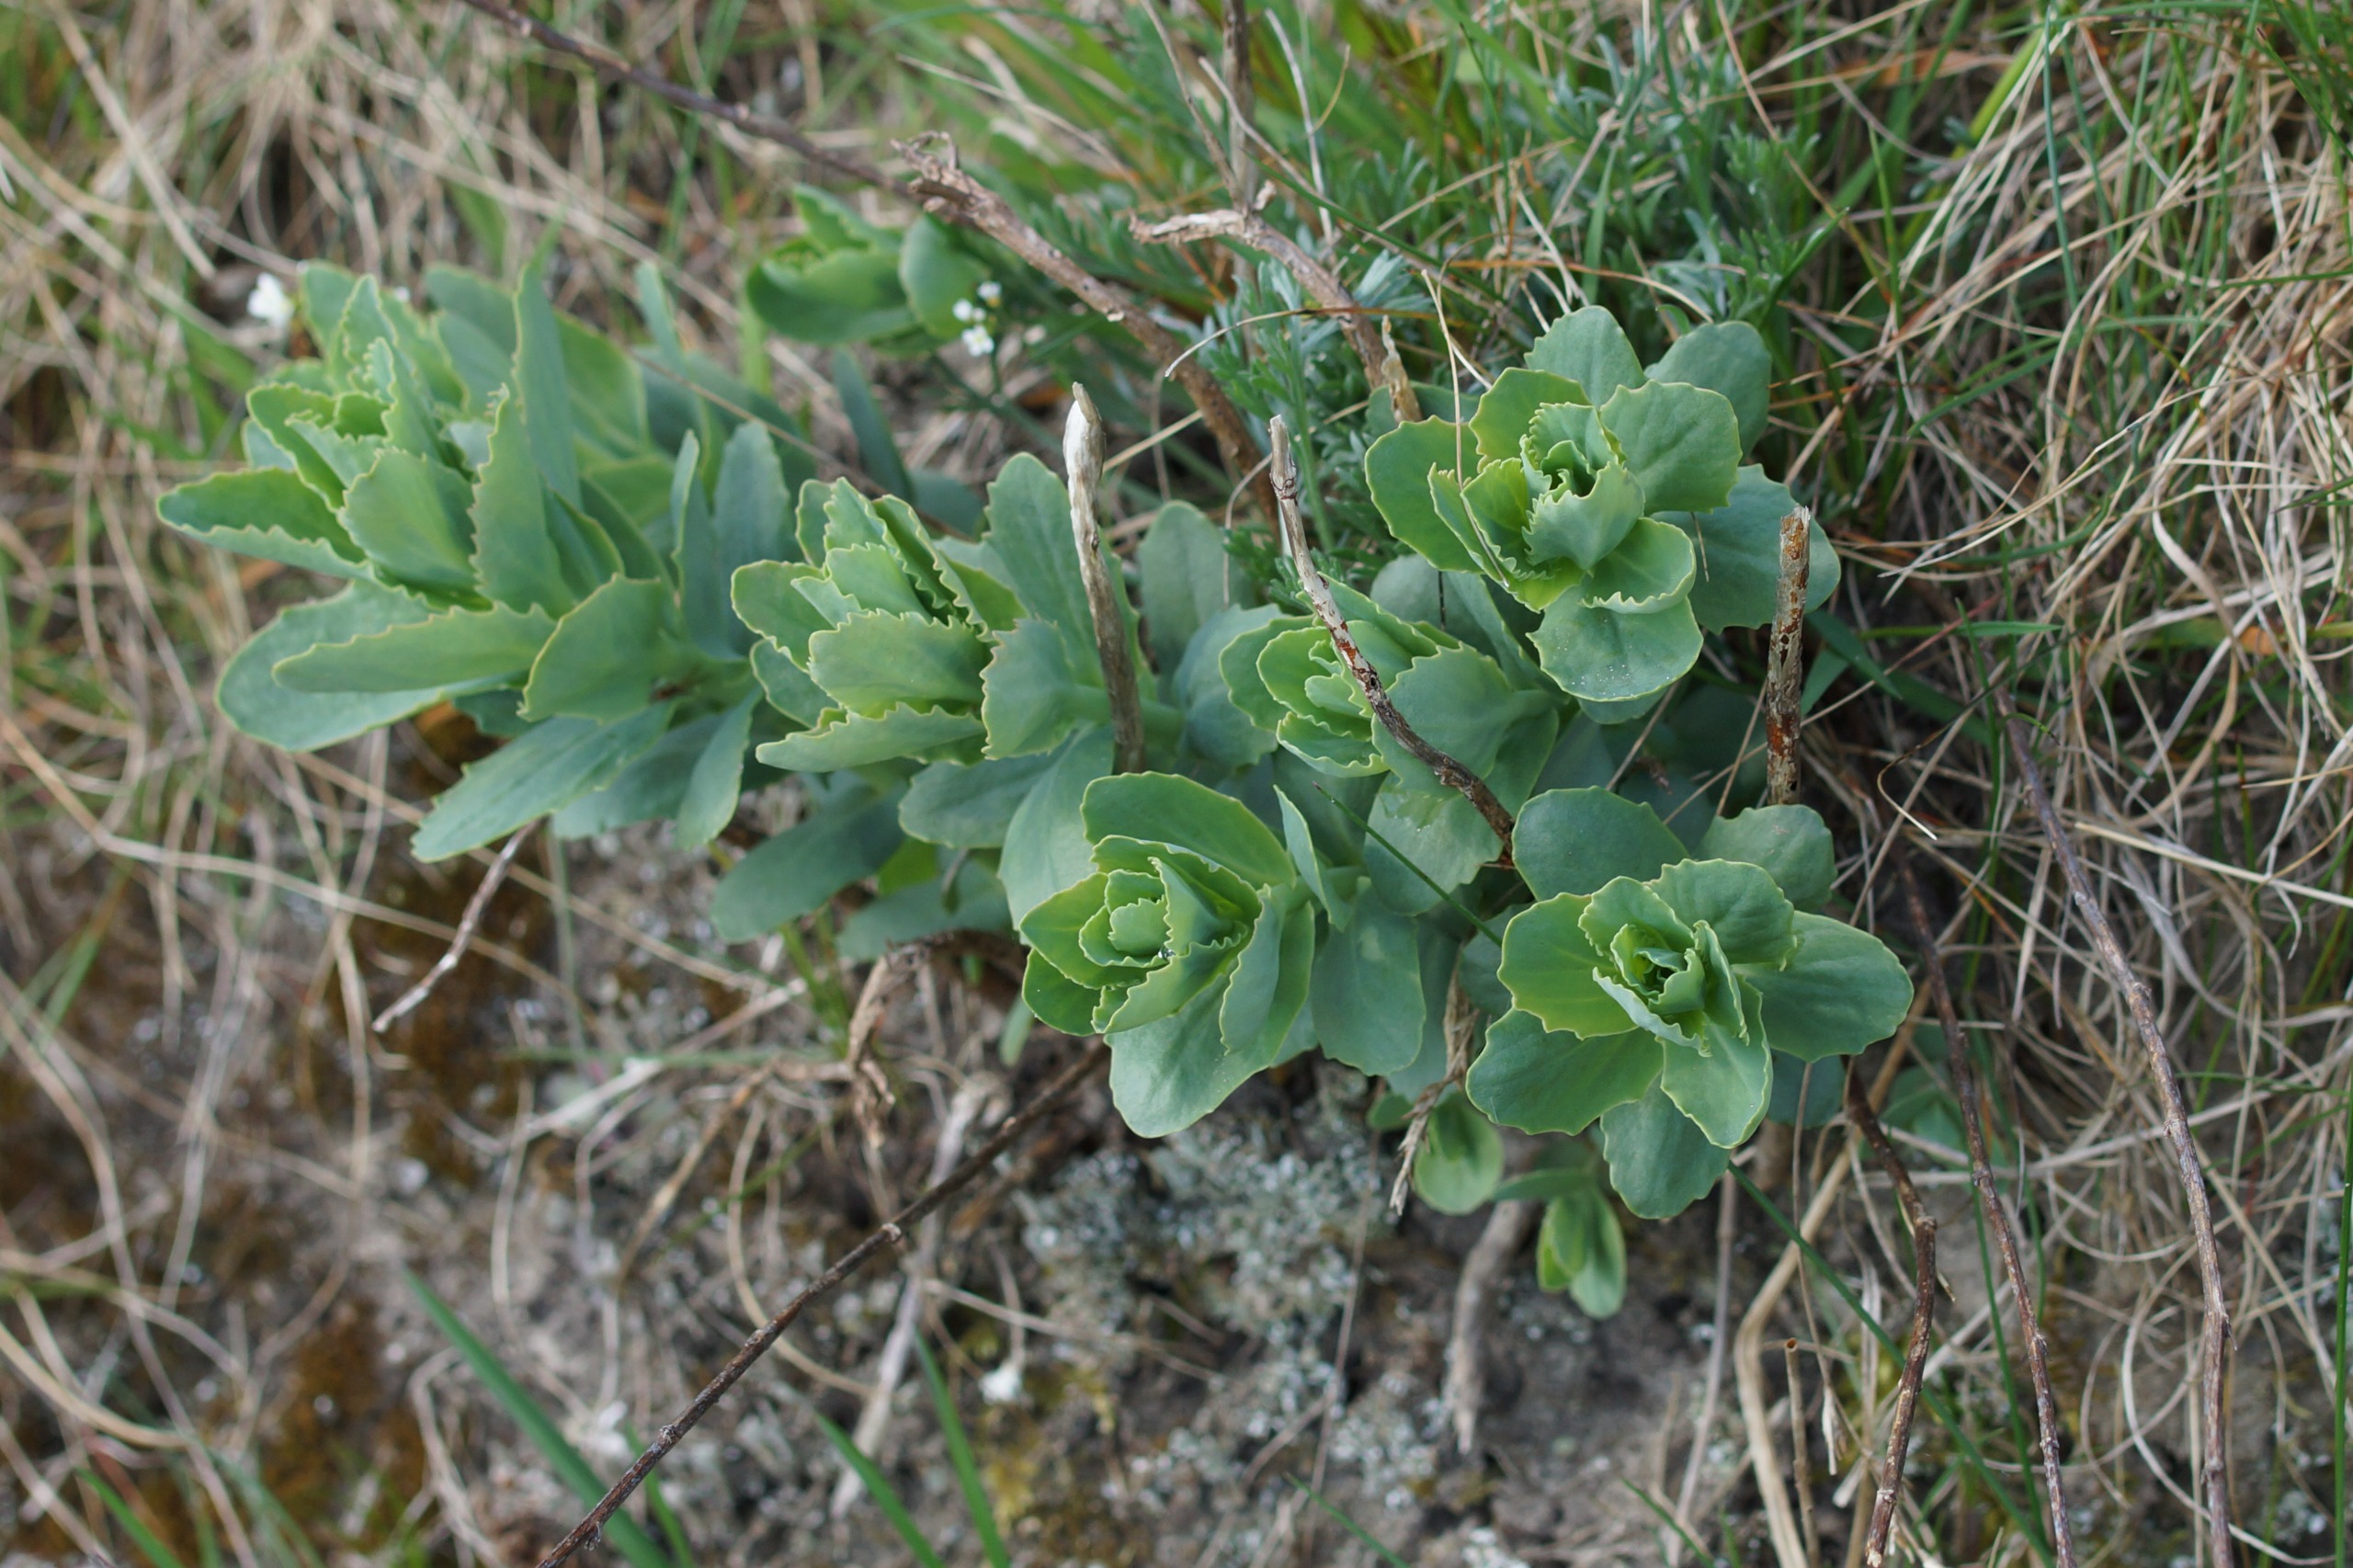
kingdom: Plantae
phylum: Tracheophyta
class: Magnoliopsida
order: Saxifragales
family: Crassulaceae
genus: Hylotelephium
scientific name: Hylotelephium telephium
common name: Sankthansurt
